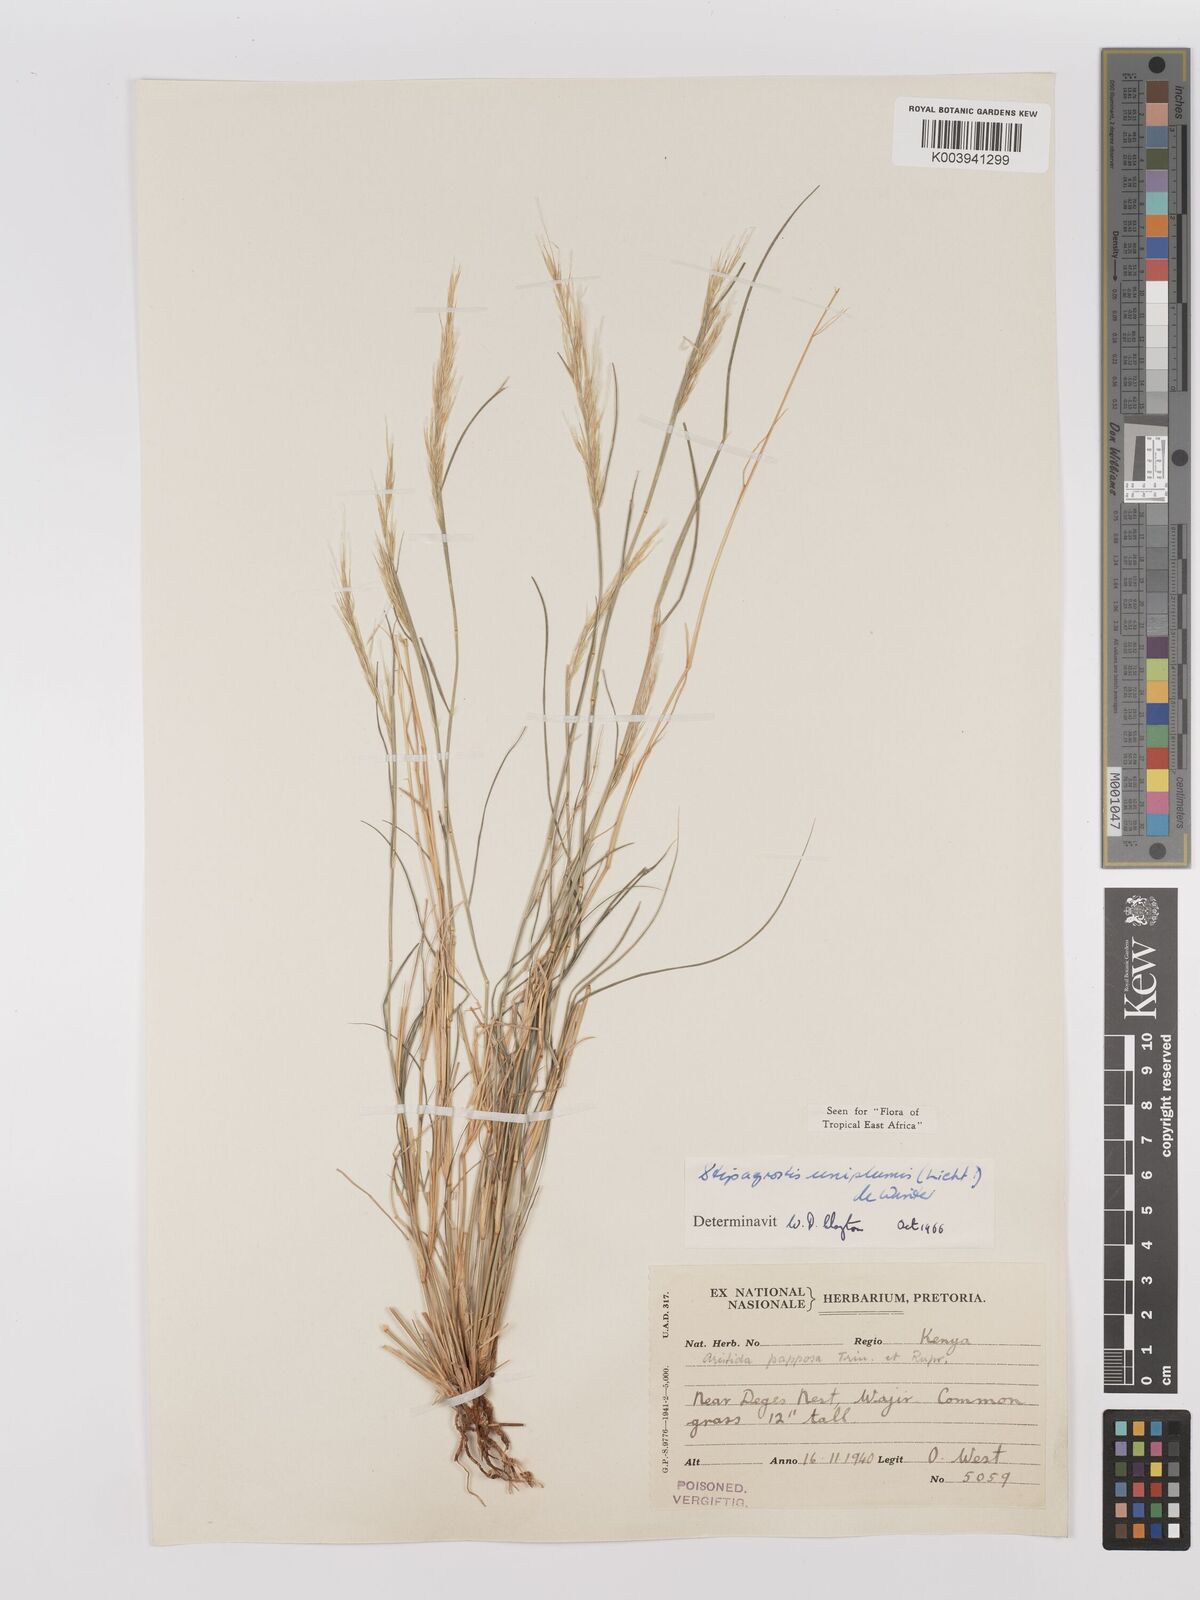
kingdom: Plantae
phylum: Tracheophyta
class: Liliopsida
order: Poales
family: Poaceae
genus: Stipagrostis
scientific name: Stipagrostis uniplumis
